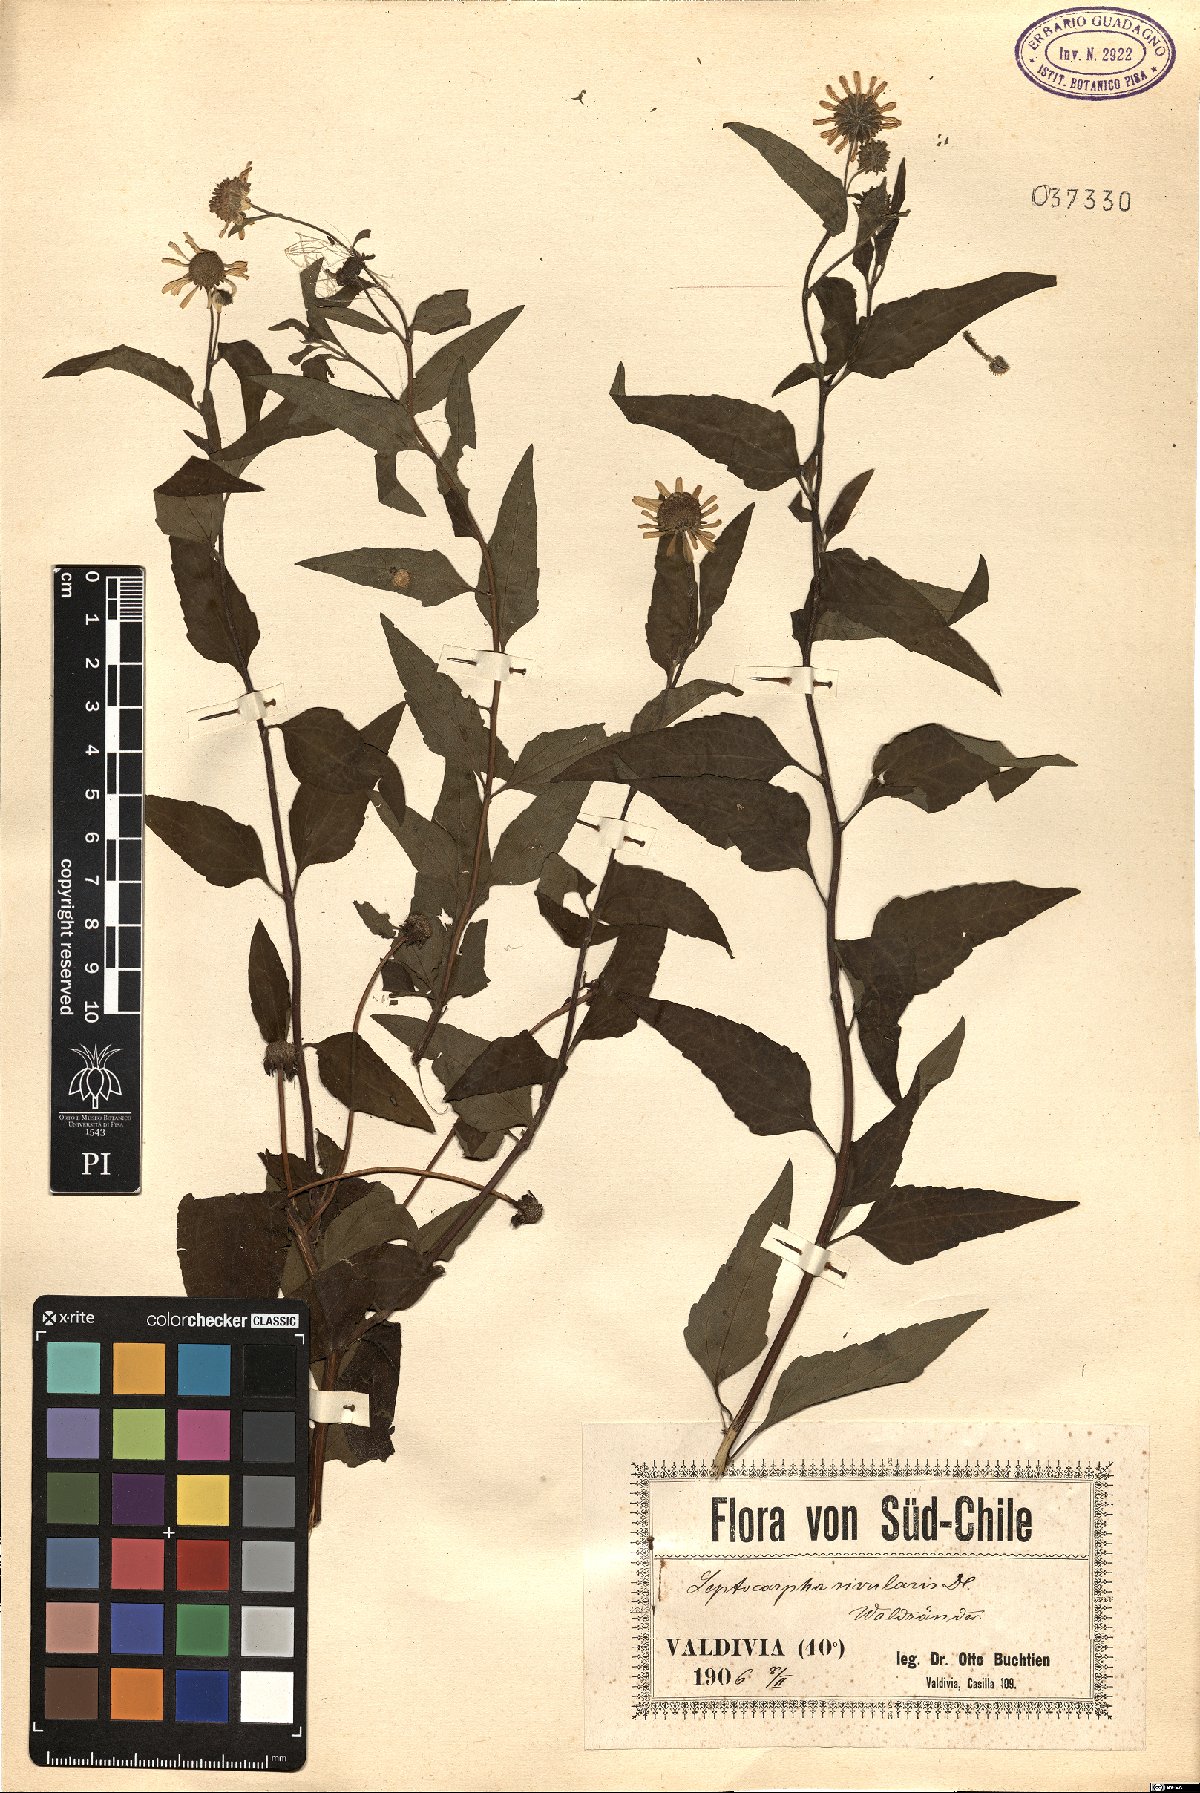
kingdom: Plantae
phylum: Tracheophyta
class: Magnoliopsida
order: Asterales
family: Asteraceae
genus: Leptocarpha
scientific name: Leptocarpha rivularis
